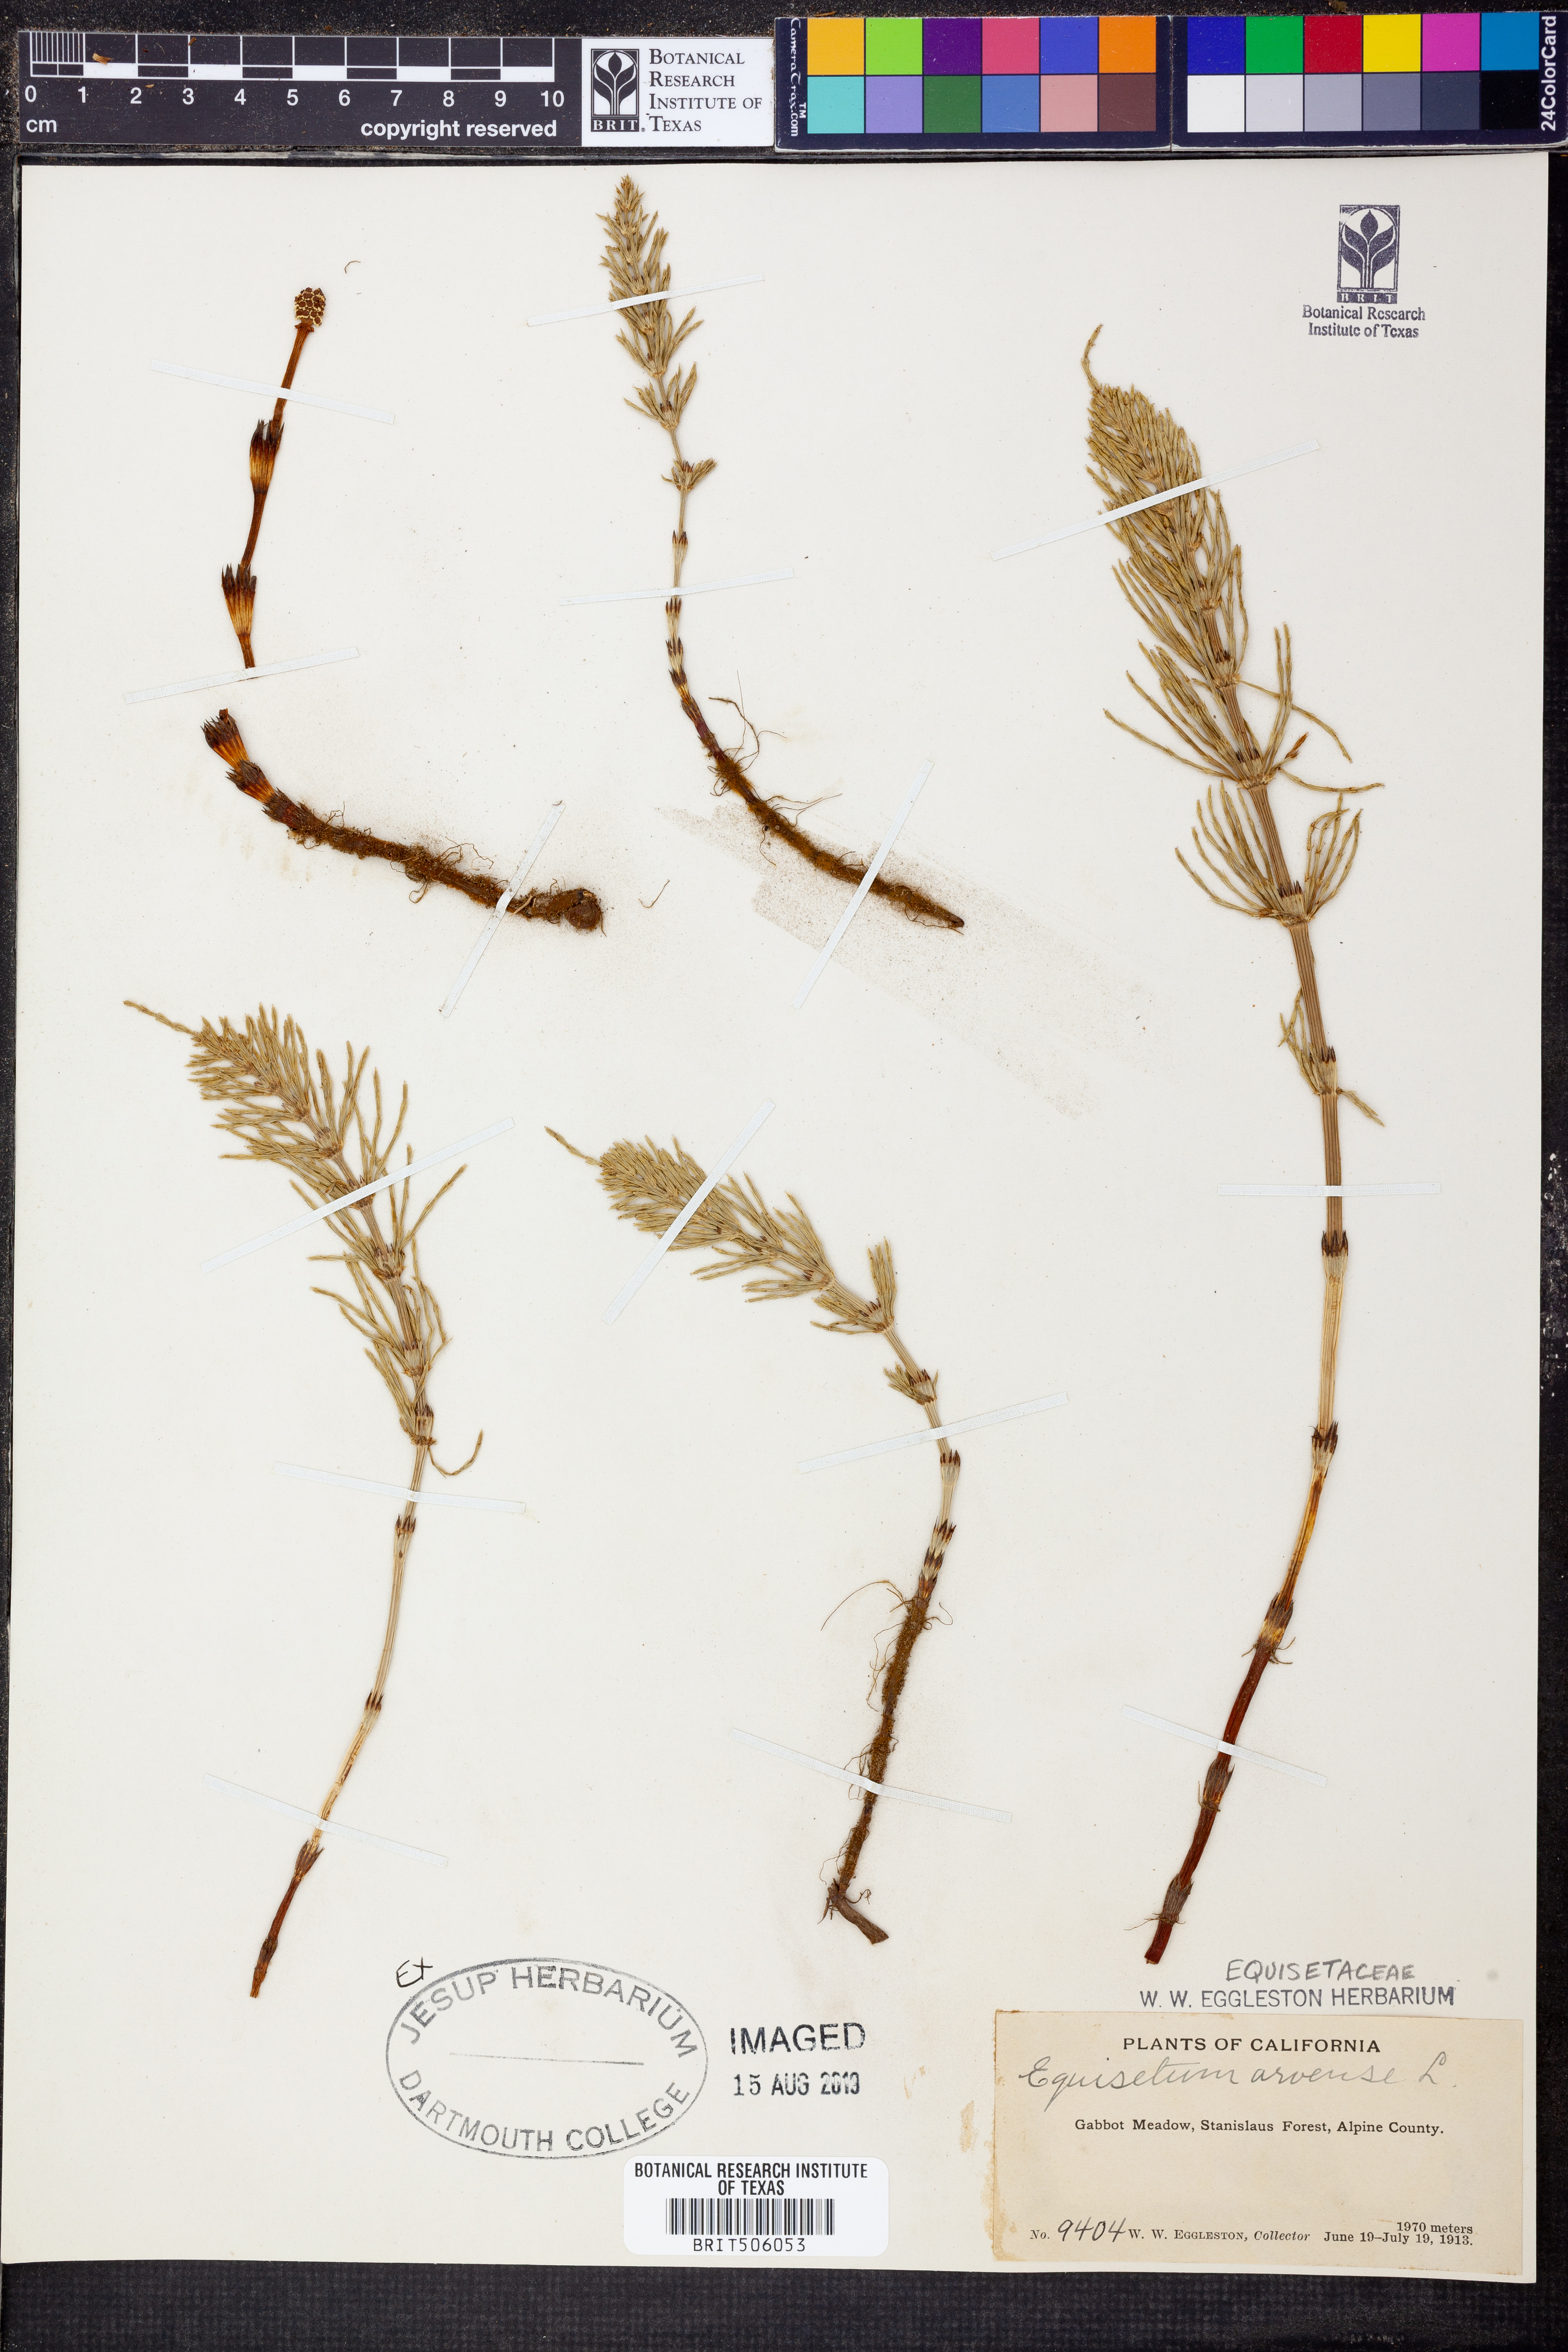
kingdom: Plantae
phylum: Tracheophyta
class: Polypodiopsida
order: Equisetales
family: Equisetaceae
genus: Equisetum
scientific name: Equisetum arvense
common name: Field horsetail
